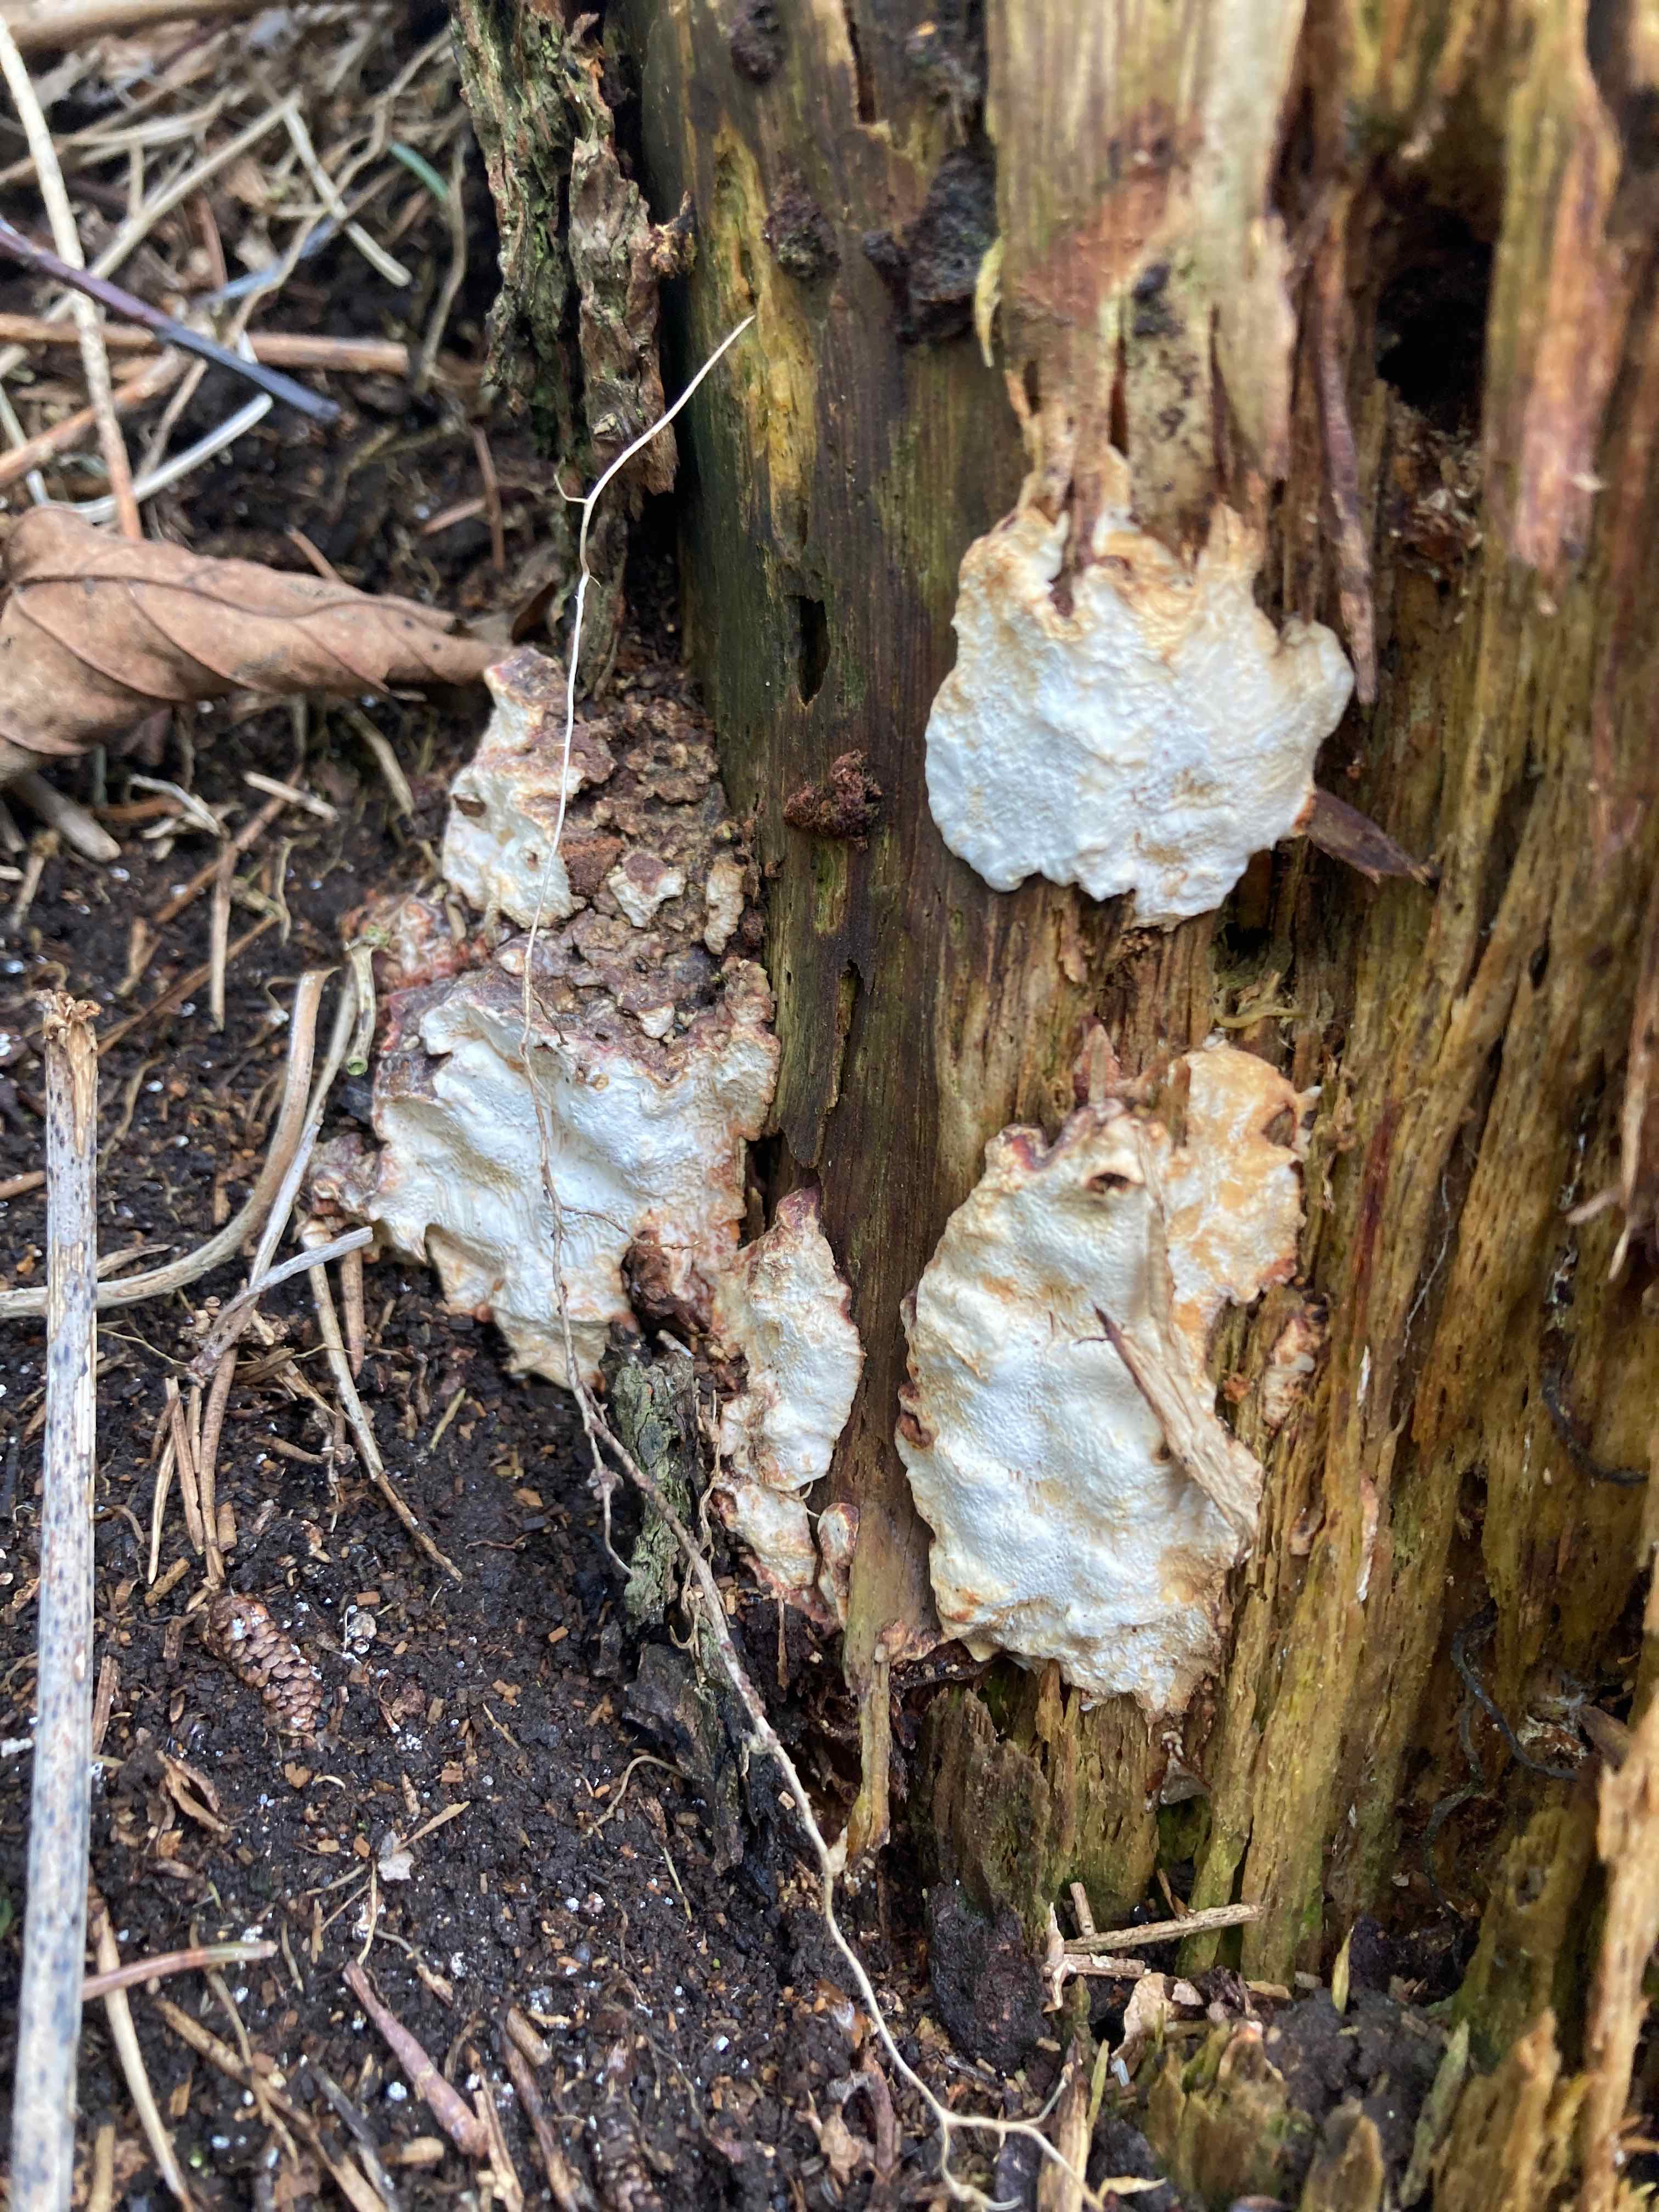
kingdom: Fungi
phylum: Basidiomycota
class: Agaricomycetes
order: Polyporales
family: Fomitopsidaceae
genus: Neoantrodia
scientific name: Neoantrodia serialis
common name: række-sejporesvamp
